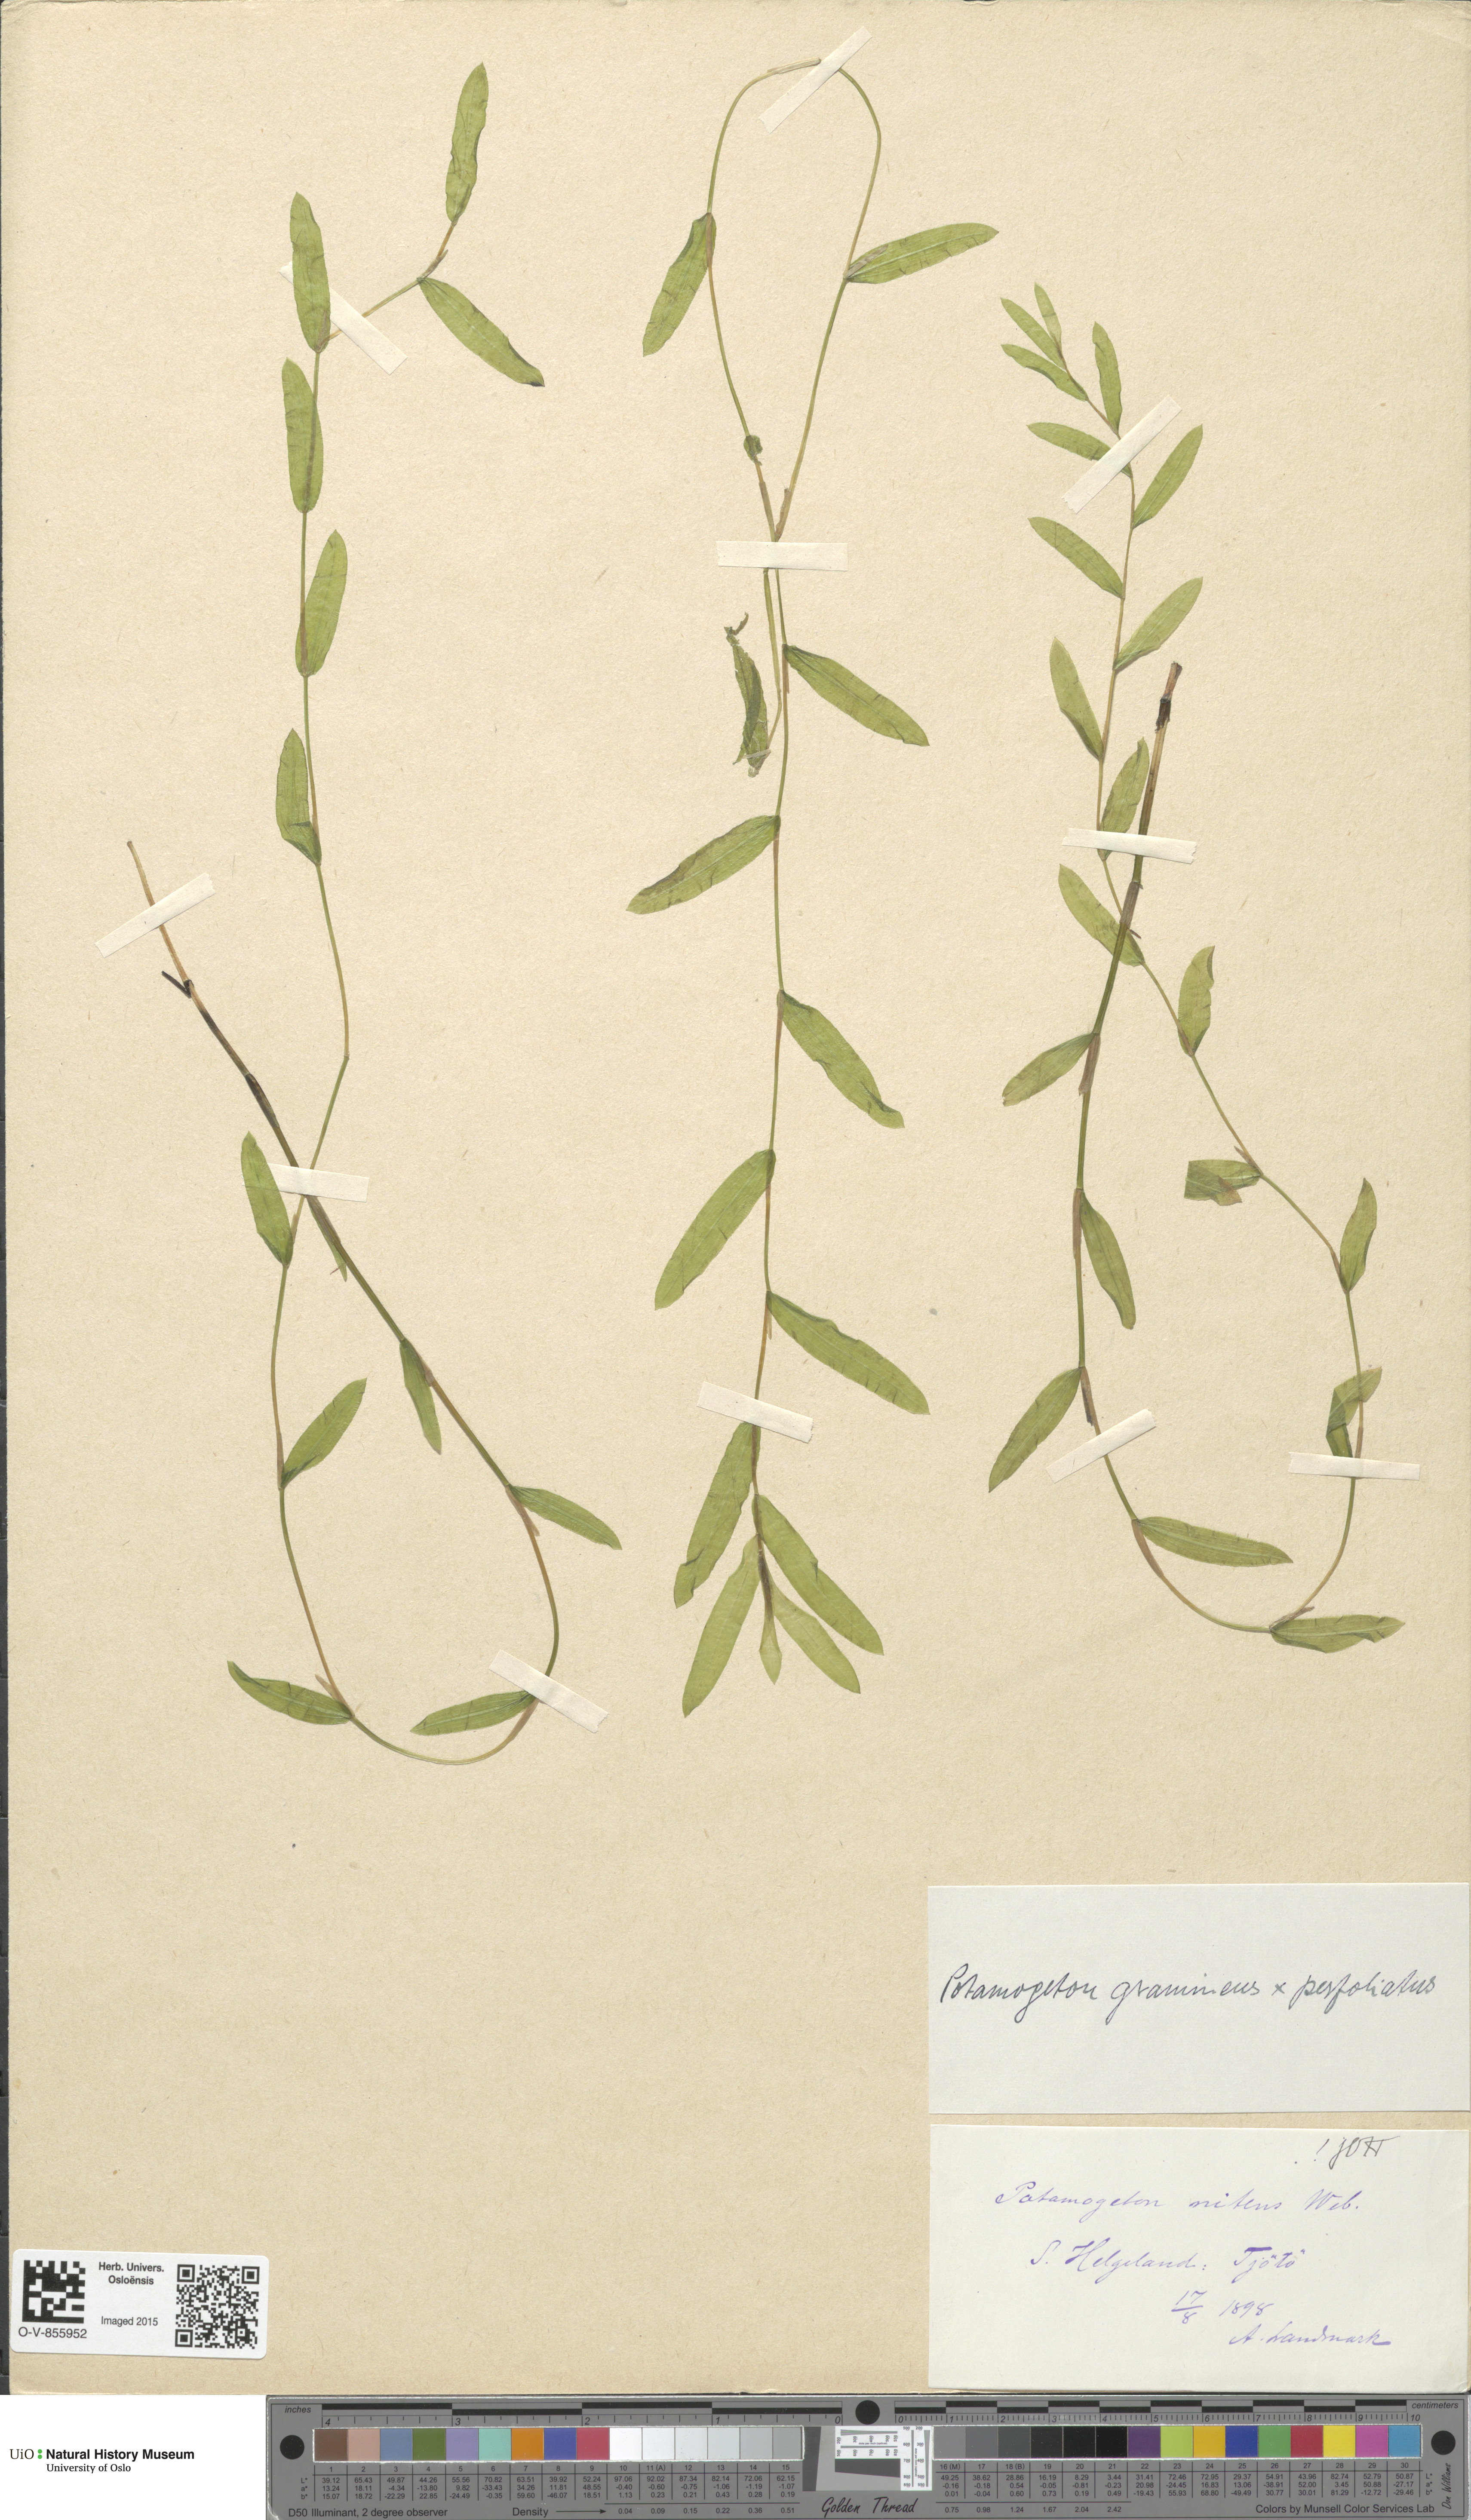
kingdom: Plantae
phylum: Tracheophyta
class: Liliopsida
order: Alismatales
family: Potamogetonaceae
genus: Potamogeton
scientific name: Potamogeton nitens
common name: Pondweed
